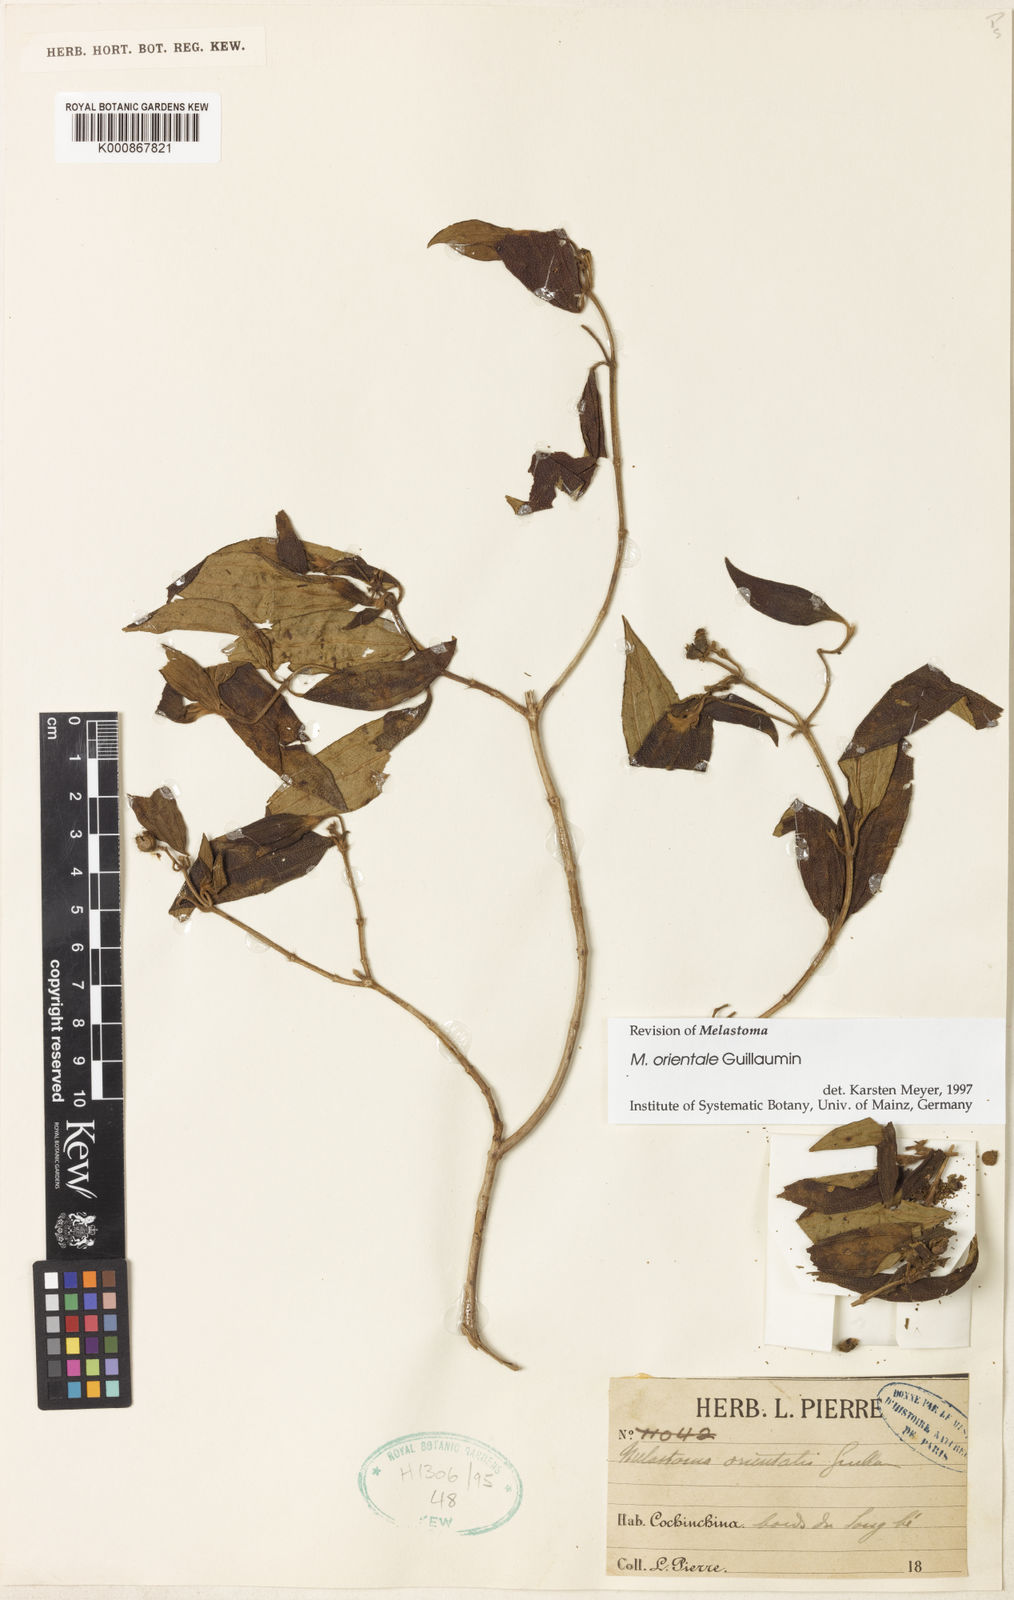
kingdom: Plantae
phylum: Tracheophyta
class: Magnoliopsida
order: Myrtales
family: Melastomataceae
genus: Melastoma
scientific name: Melastoma orientale
